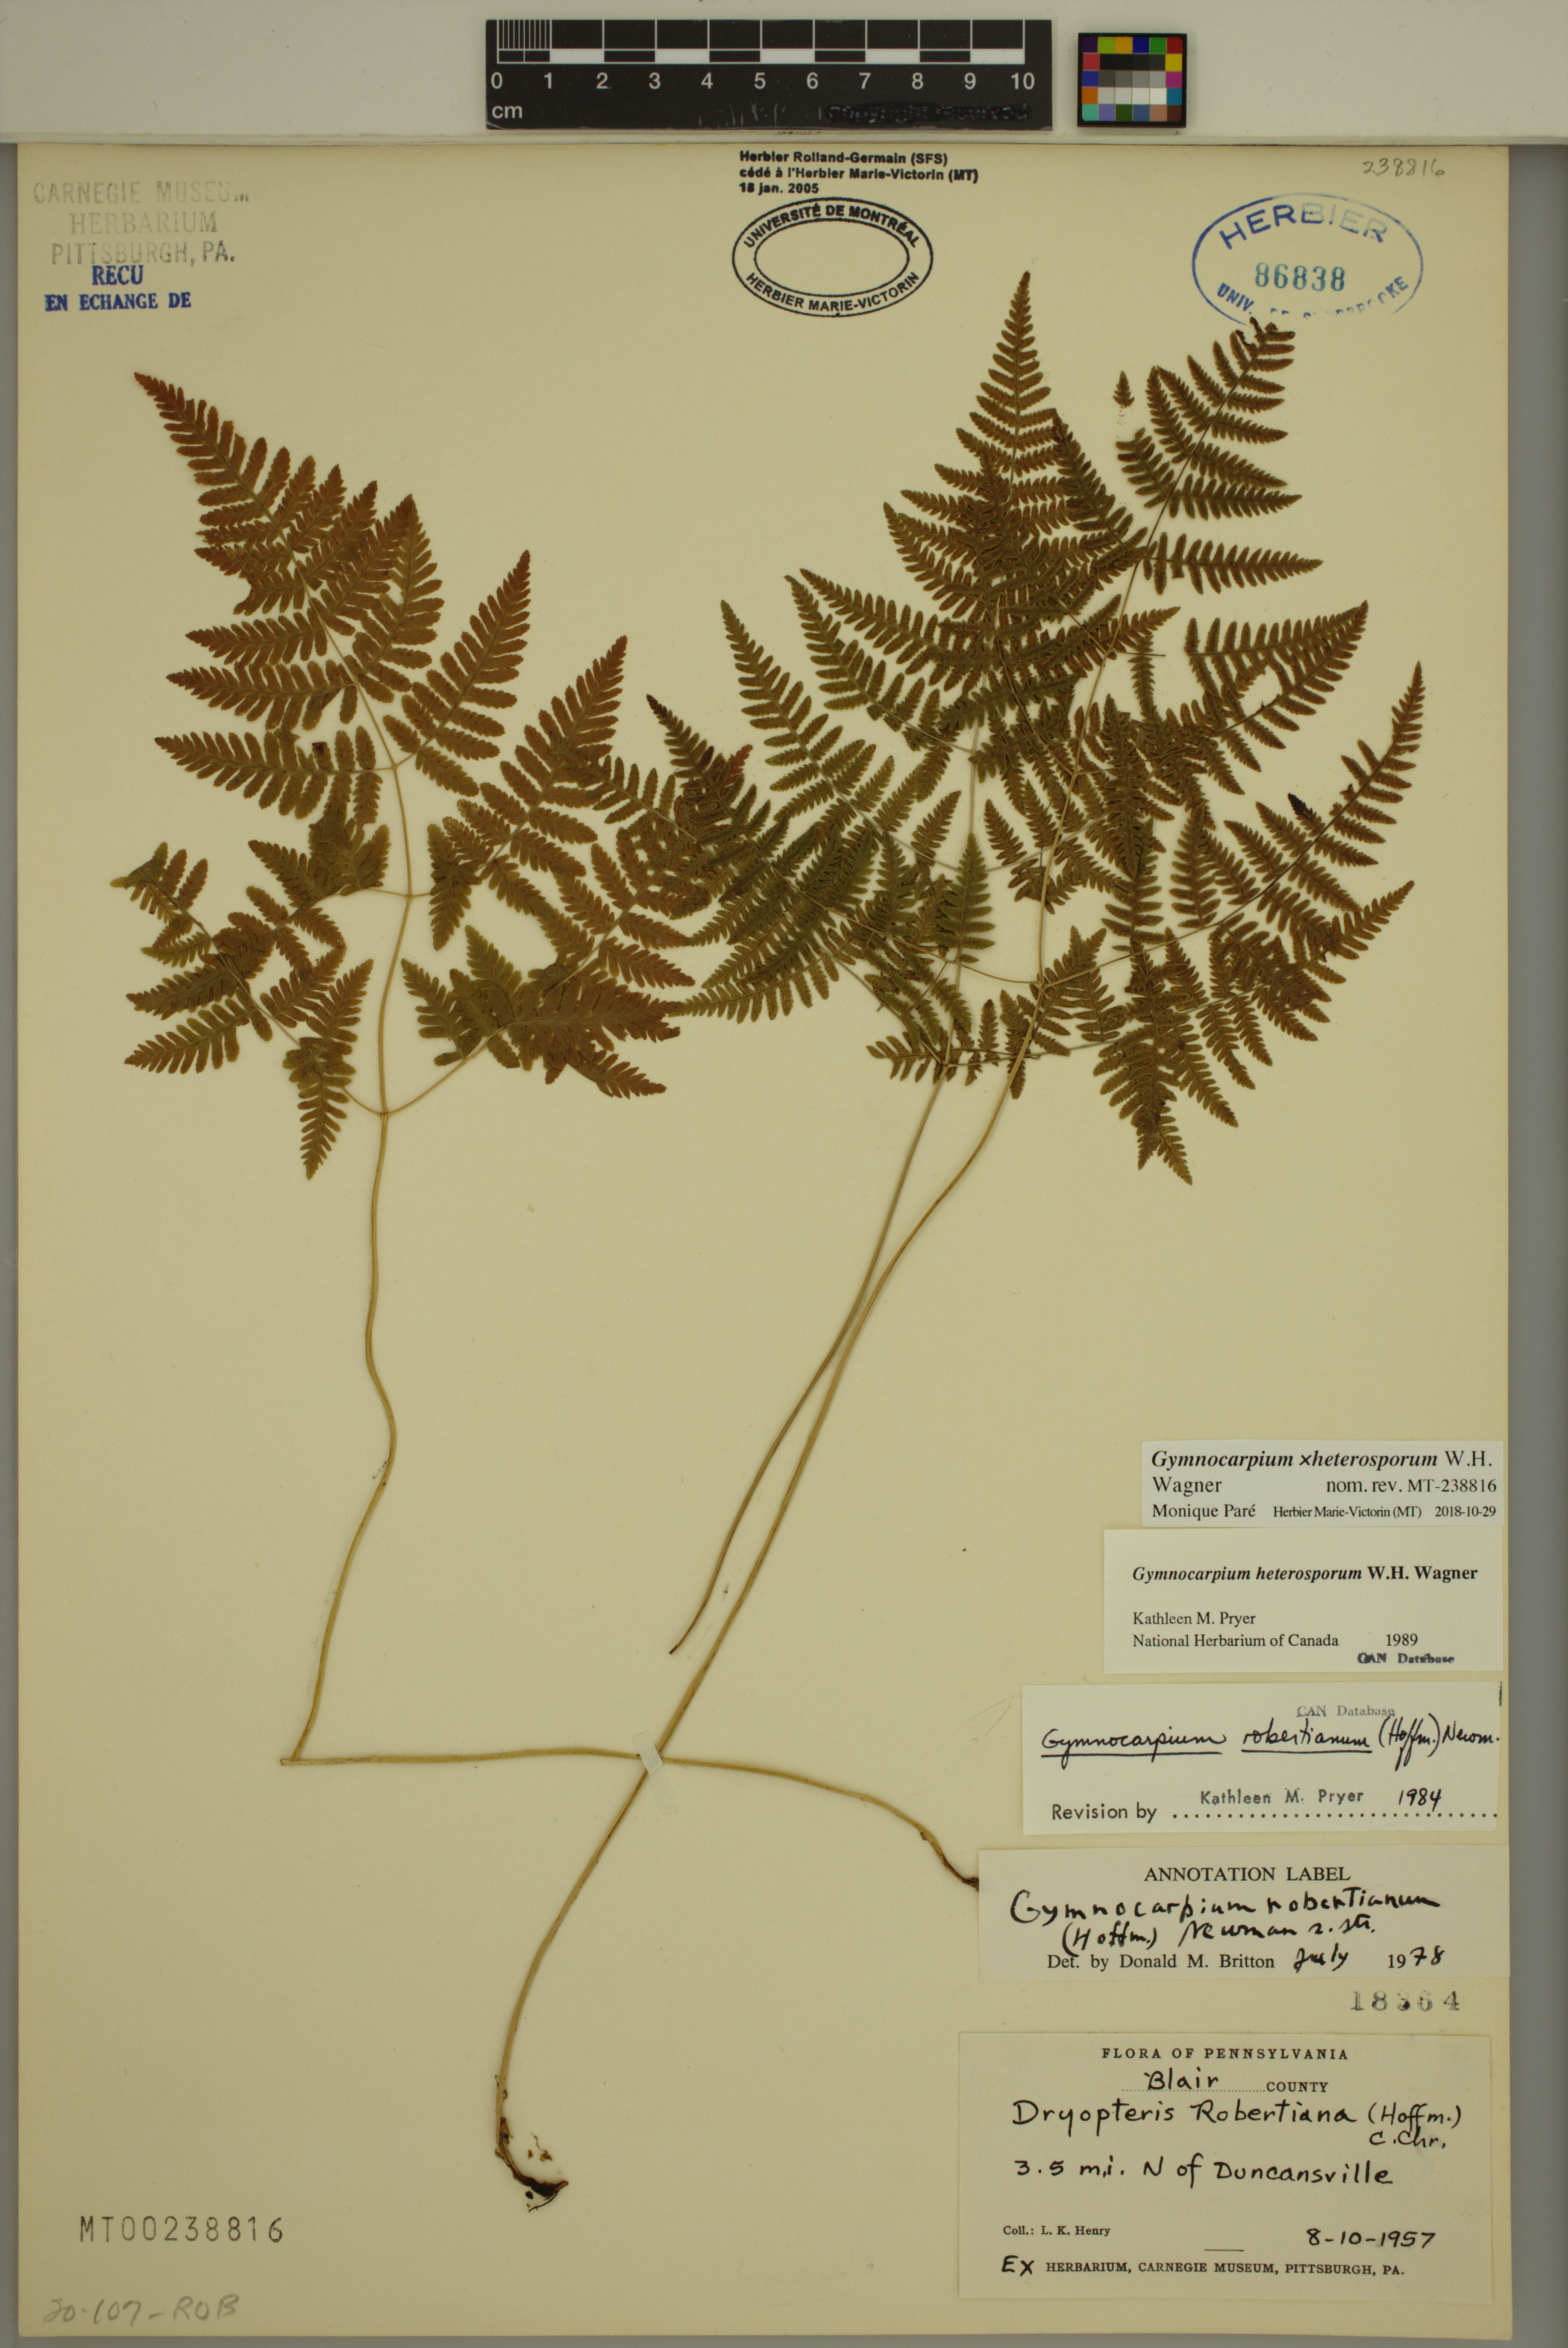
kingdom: Plantae
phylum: Tracheophyta
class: Polypodiopsida
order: Polypodiales
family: Cystopteridaceae
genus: Gymnocarpium
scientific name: Gymnocarpium heterosporum
